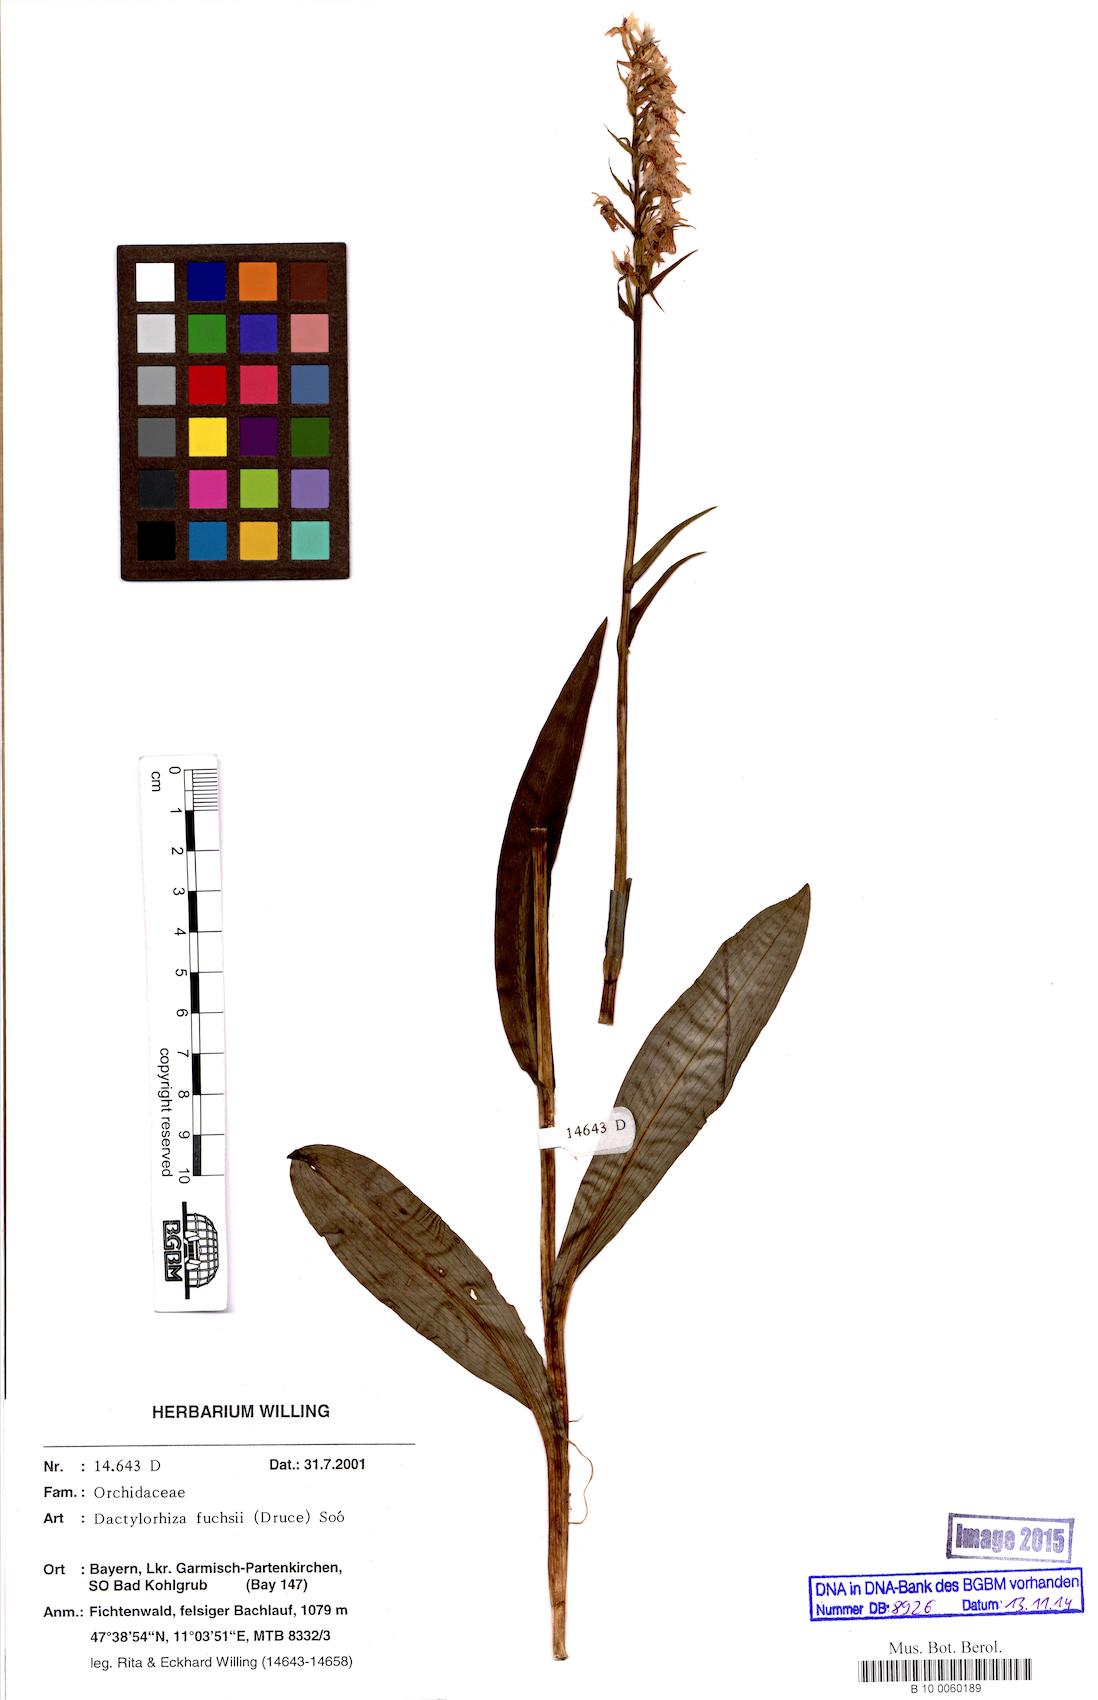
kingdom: Plantae
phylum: Tracheophyta
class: Liliopsida
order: Asparagales
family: Orchidaceae
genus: Dactylorhiza
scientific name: Dactylorhiza maculata
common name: Heath spotted-orchid
